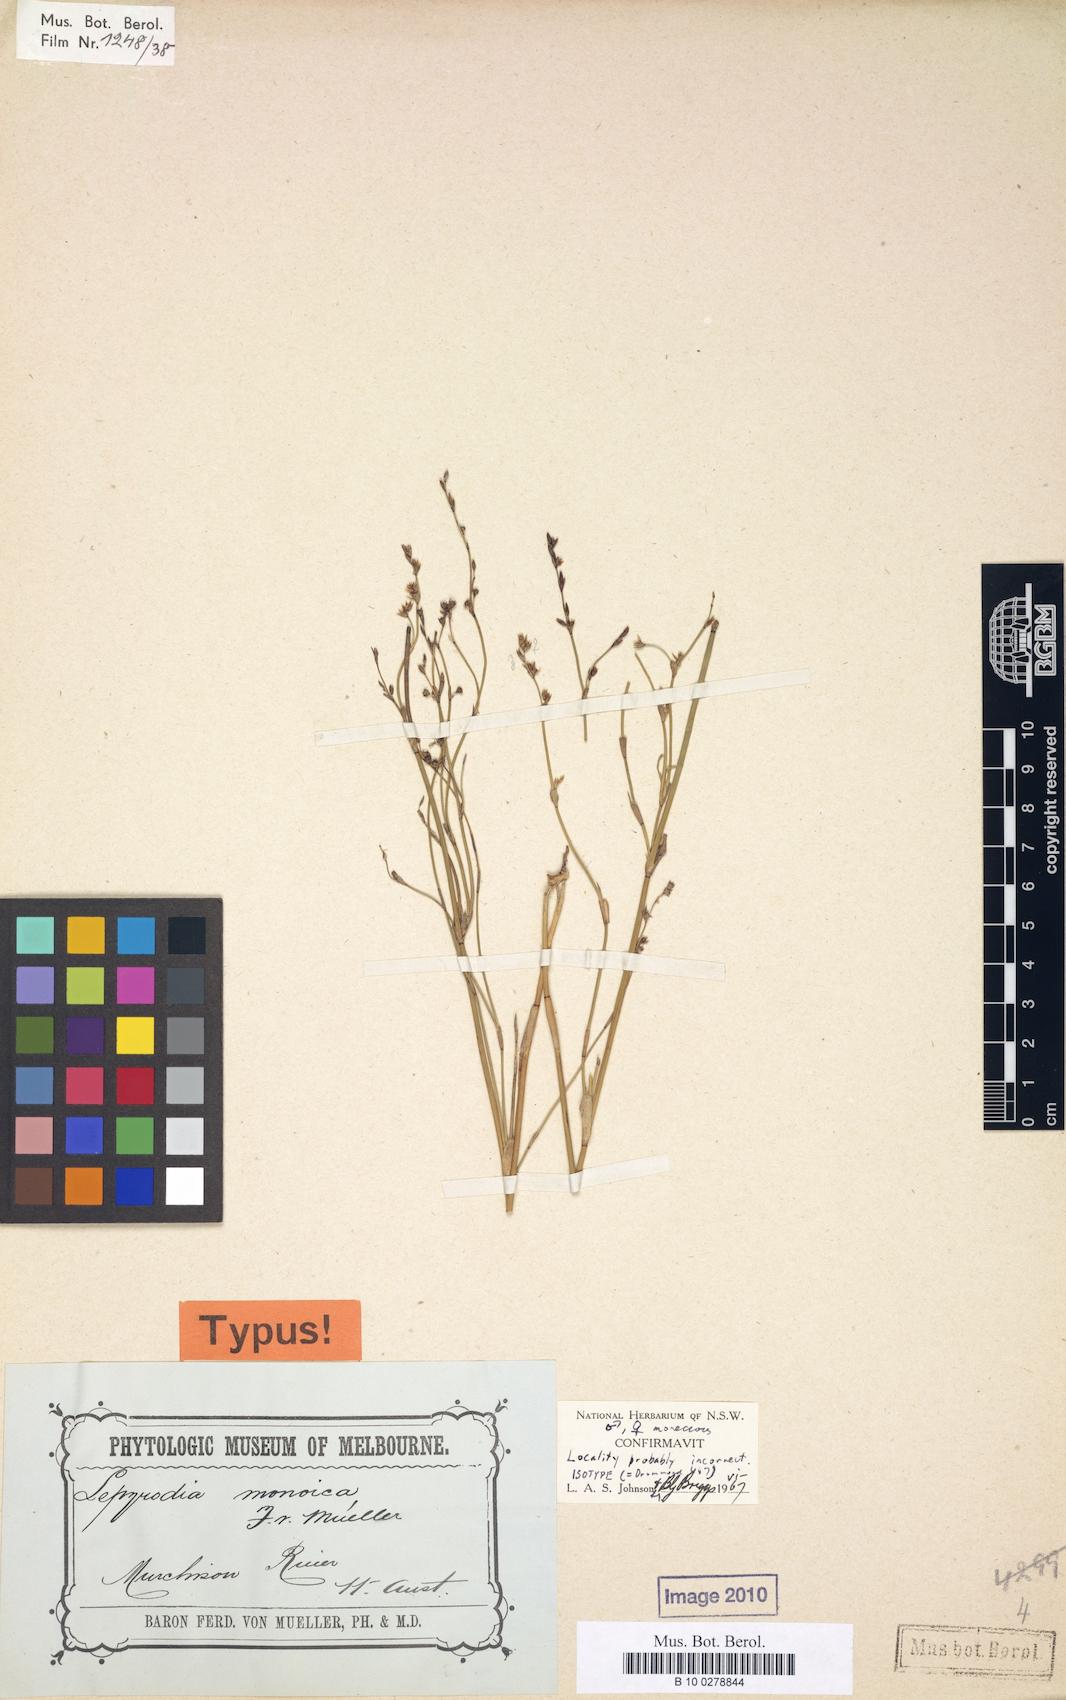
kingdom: Plantae
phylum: Tracheophyta
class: Liliopsida
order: Poales
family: Restionaceae
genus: Lepyrodia
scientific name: Lepyrodia monoica
